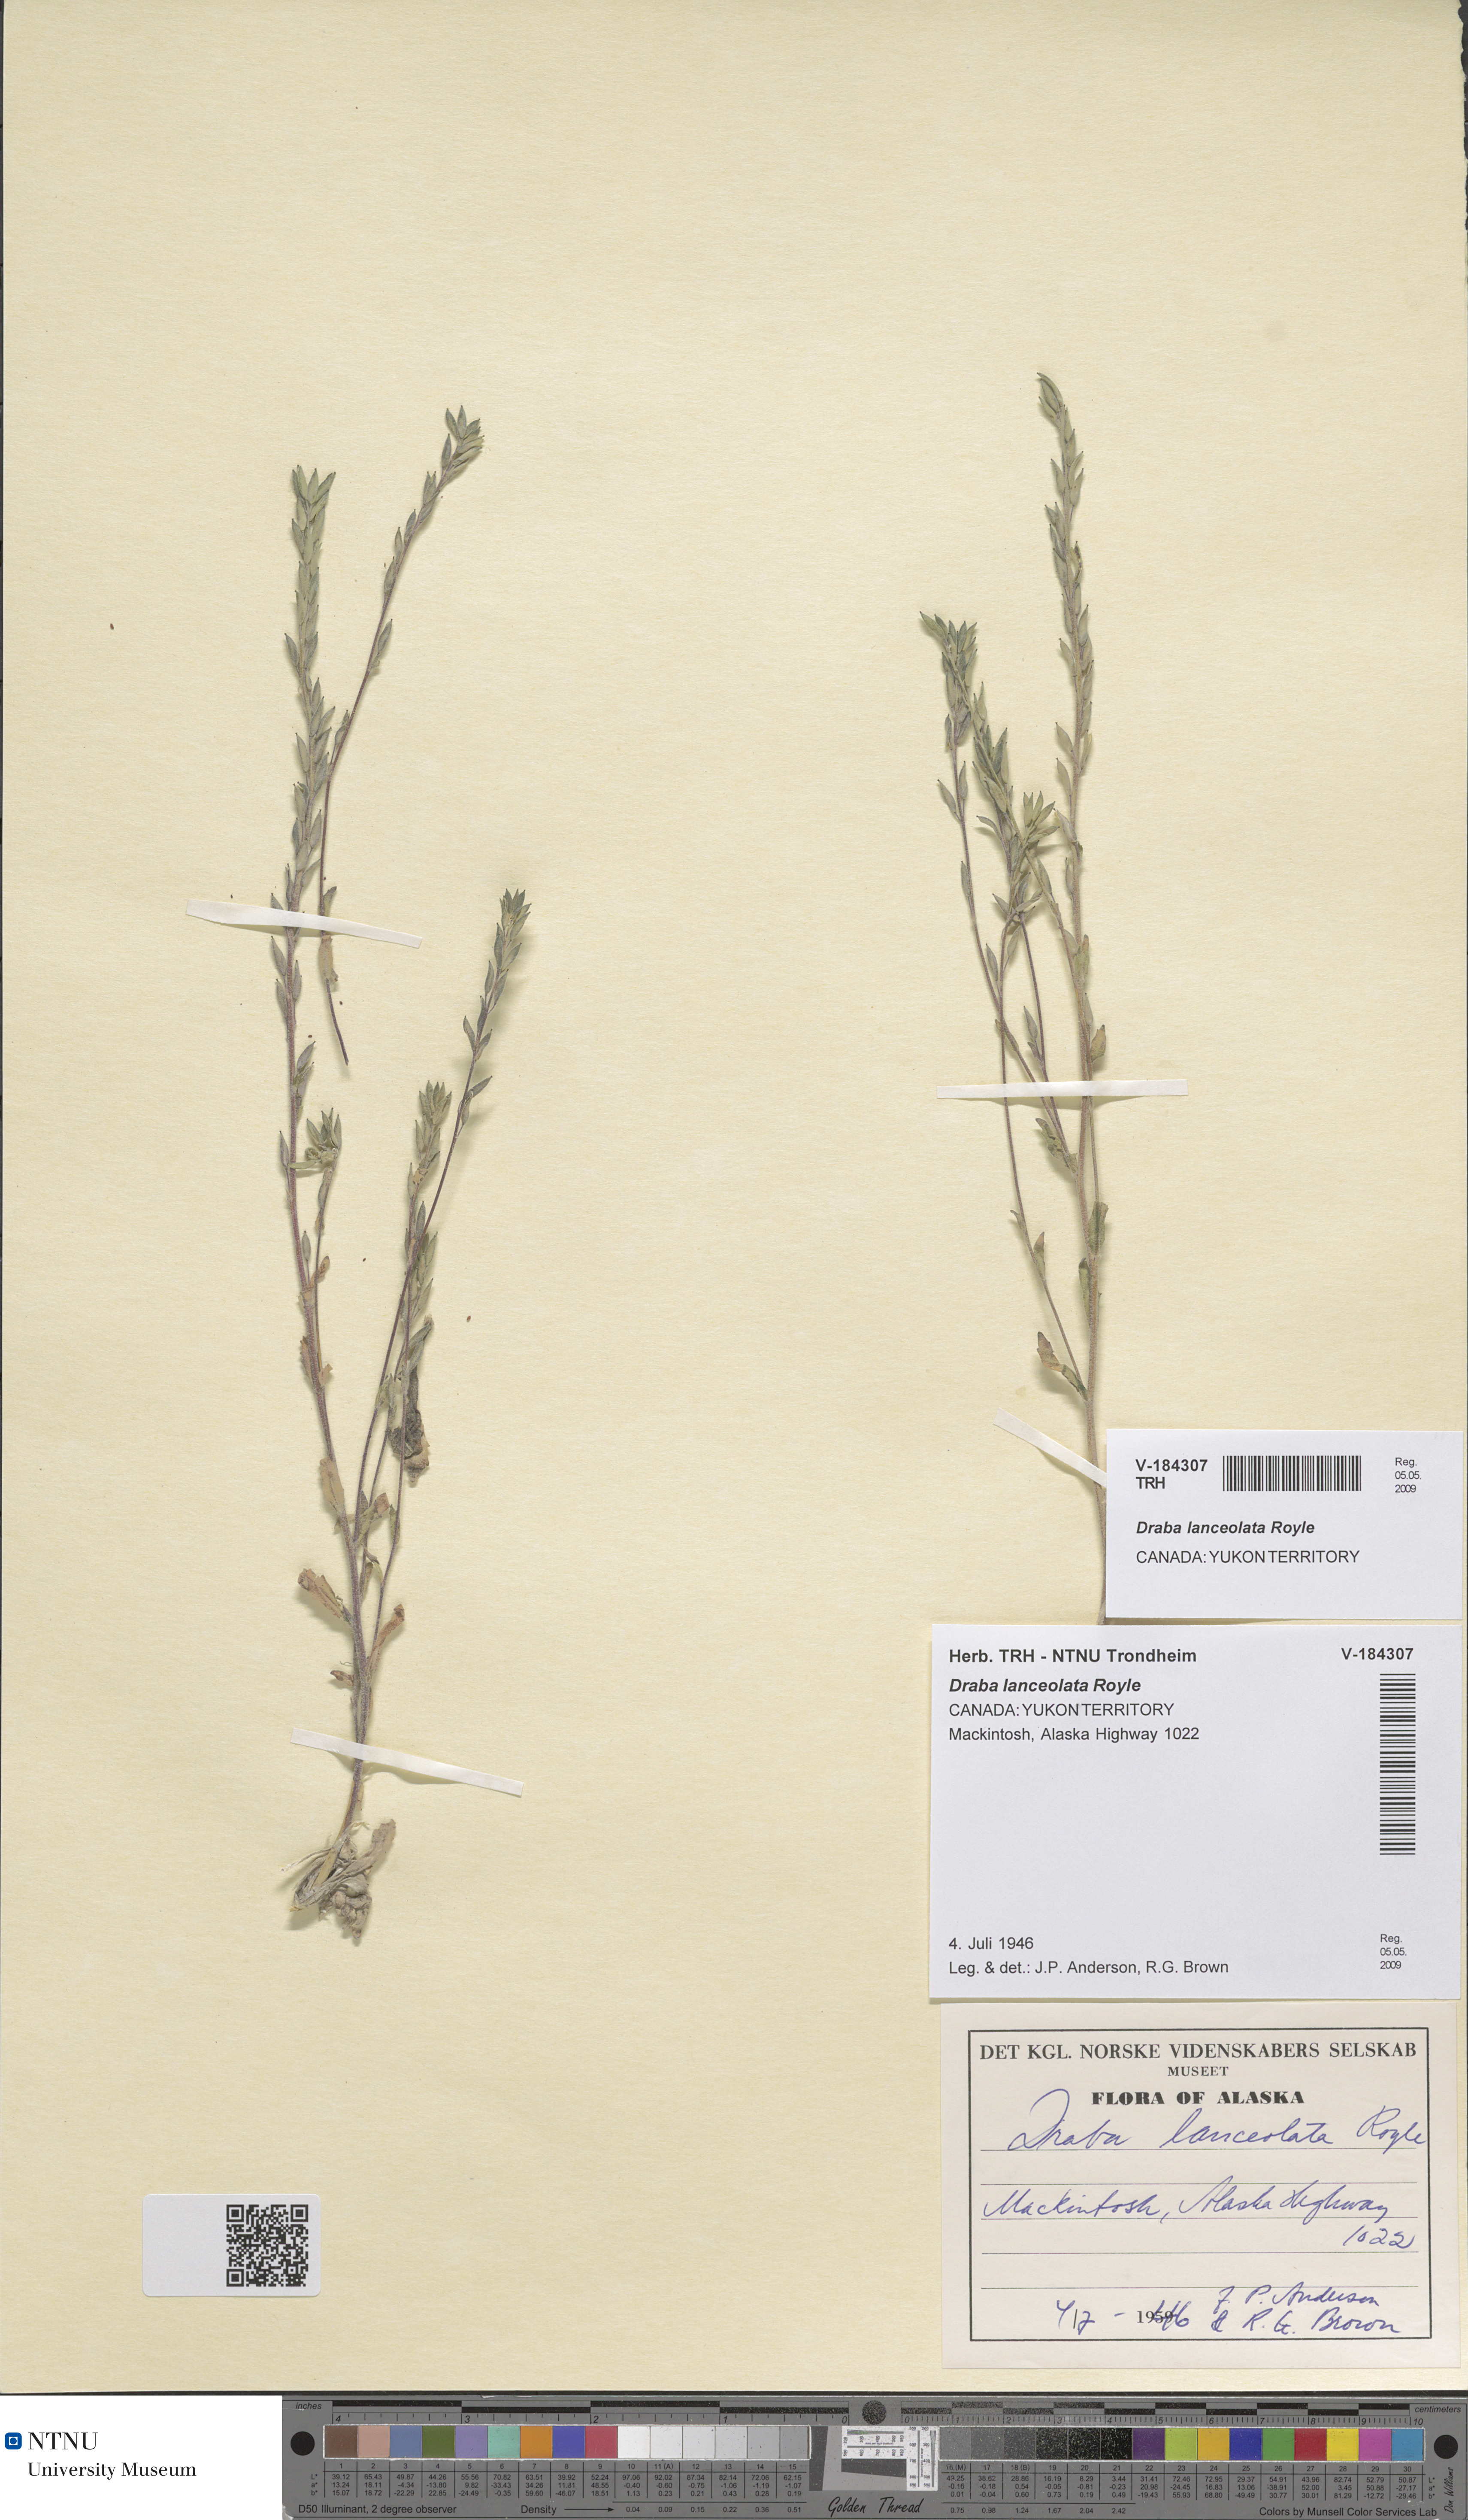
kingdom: Plantae
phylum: Tracheophyta
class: Magnoliopsida
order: Brassicales
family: Brassicaceae
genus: Draba
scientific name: Draba lanceolata
